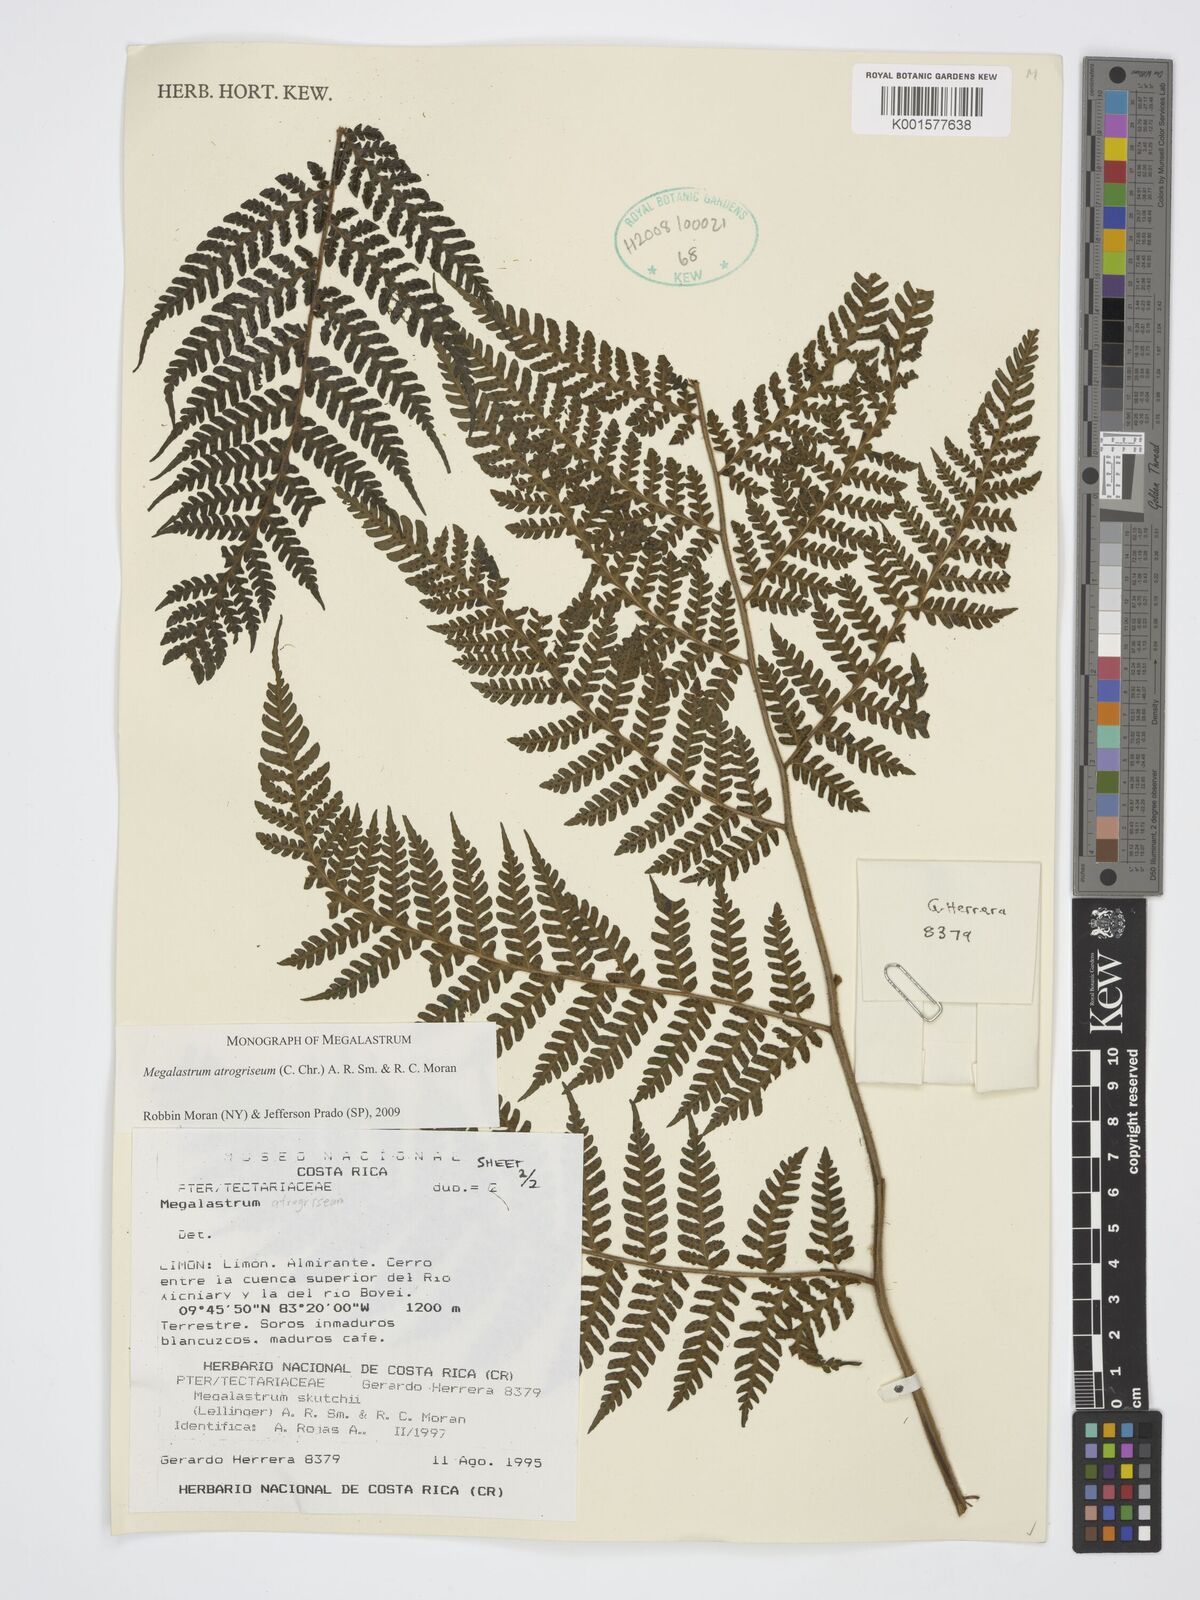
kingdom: Plantae
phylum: Tracheophyta
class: Polypodiopsida
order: Polypodiales
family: Dryopteridaceae
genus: Megalastrum
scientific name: Megalastrum atrogriseum
